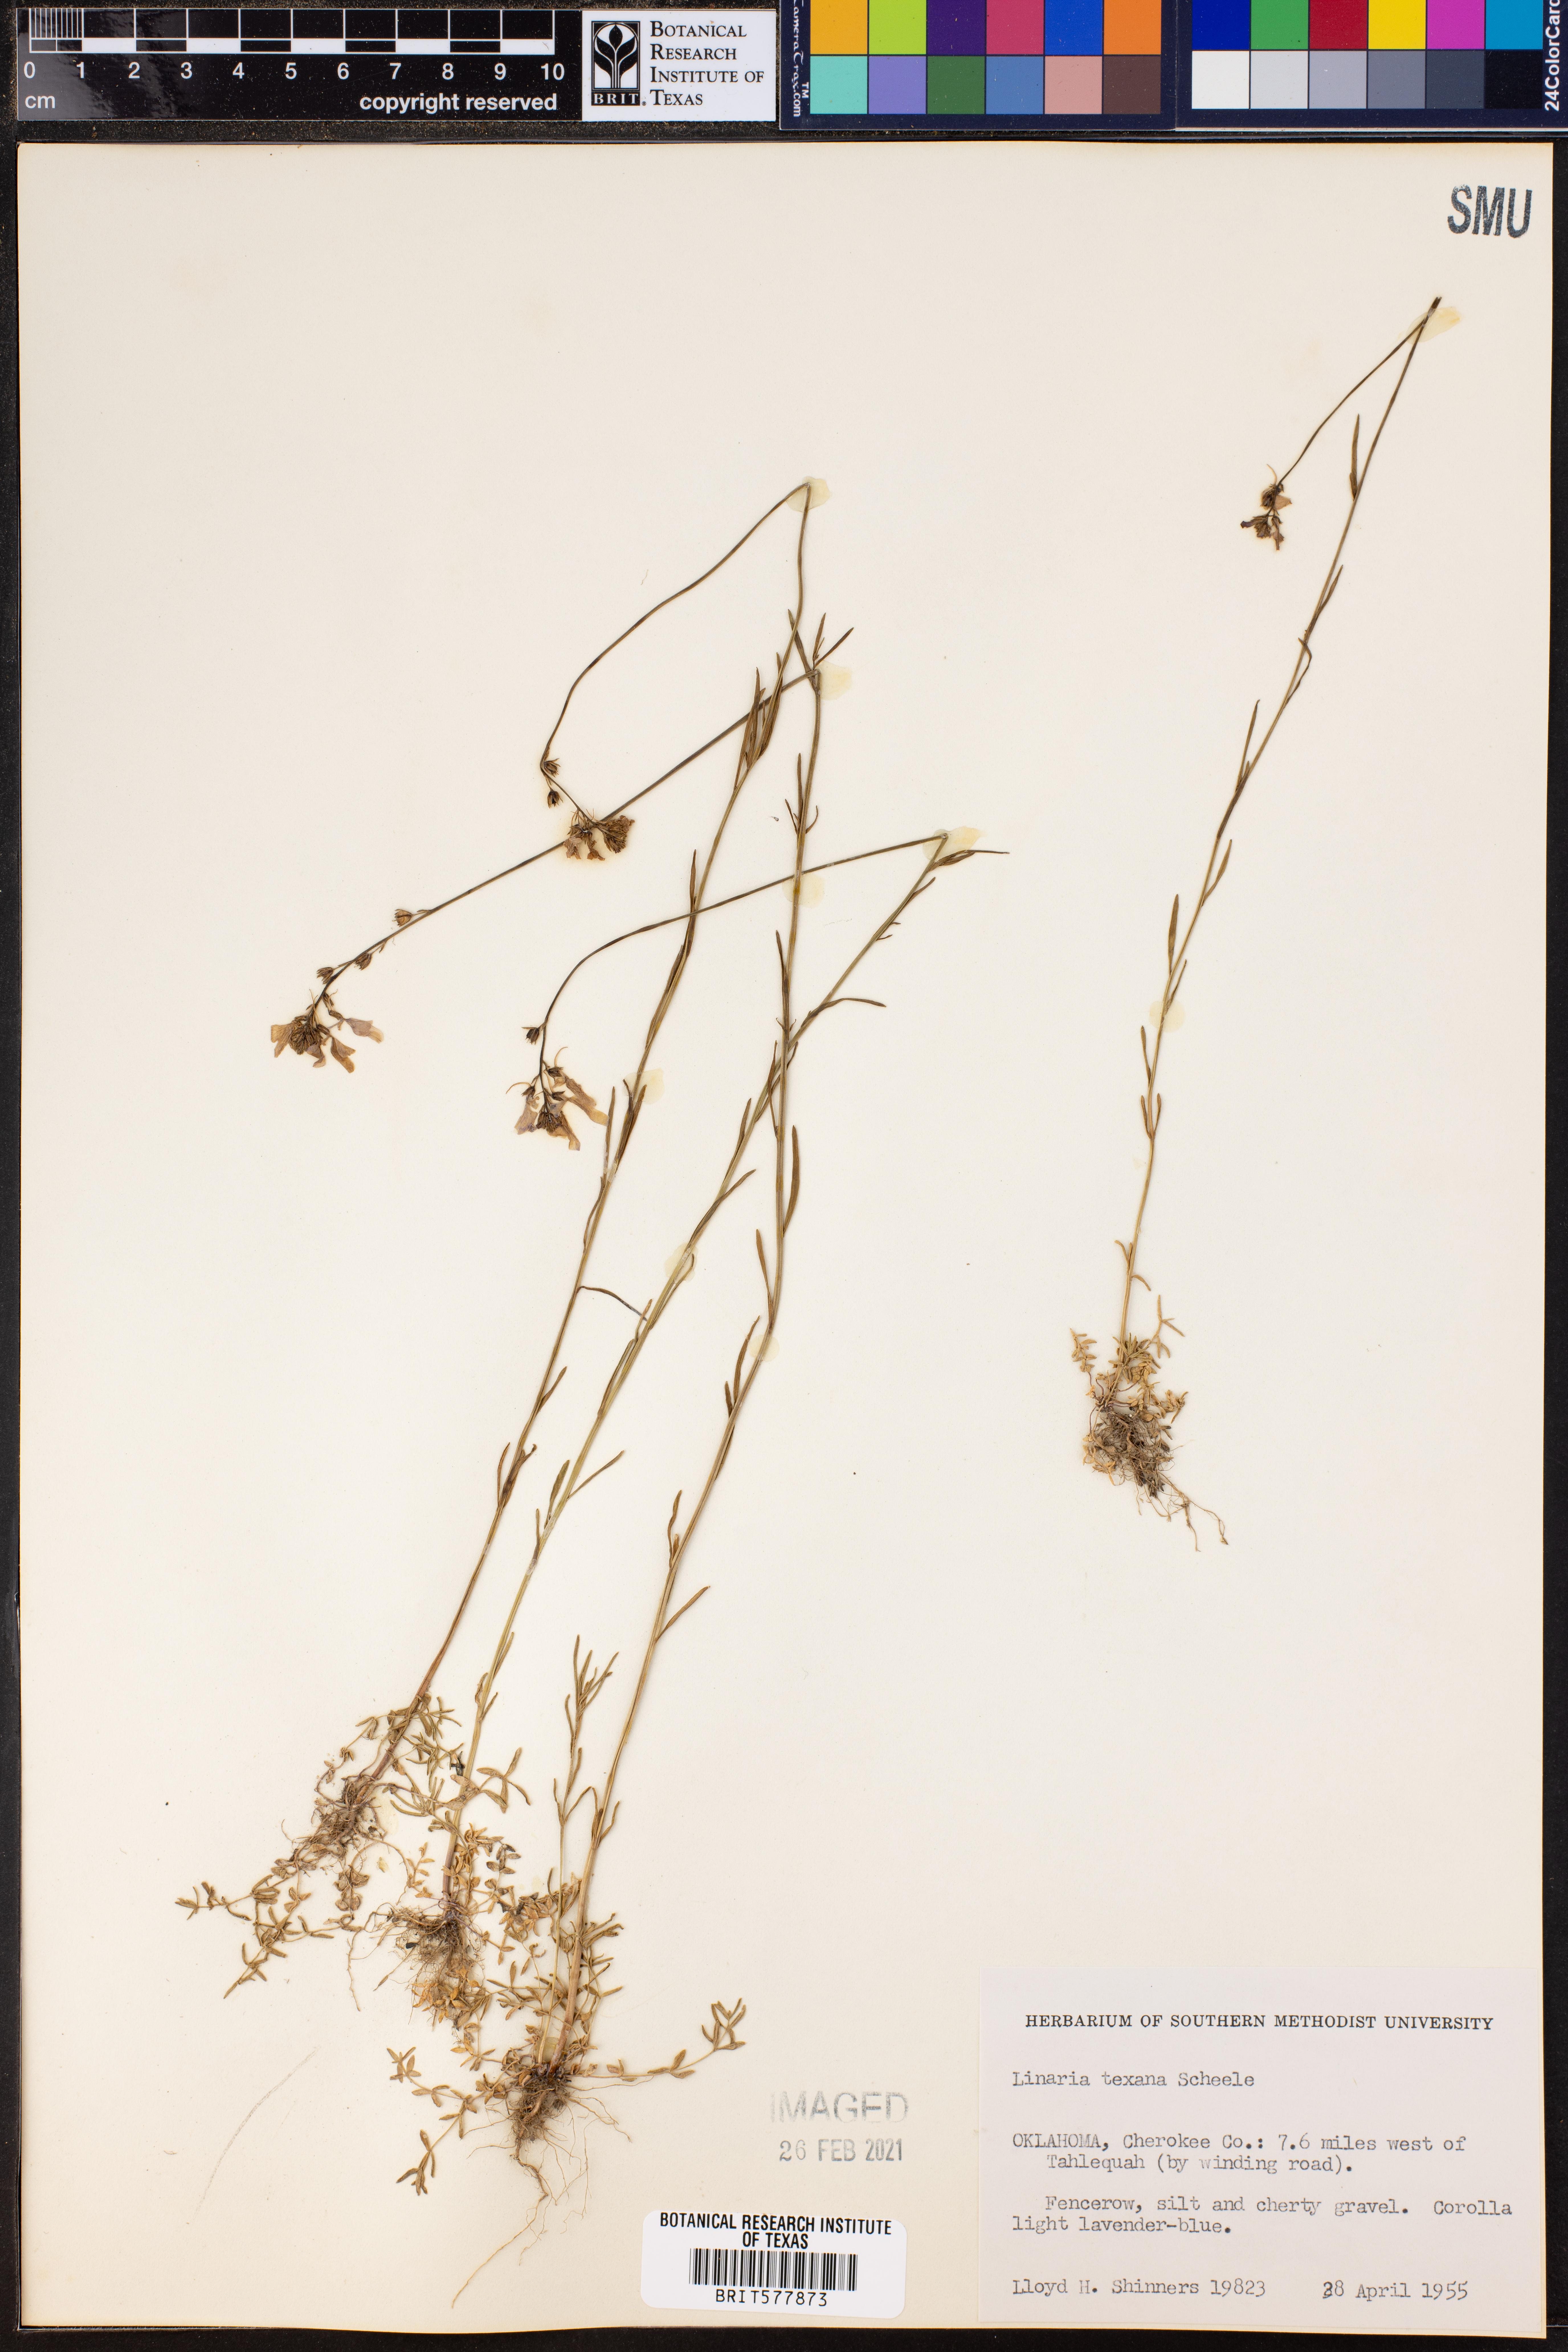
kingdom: Plantae
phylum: Tracheophyta
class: Magnoliopsida
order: Lamiales
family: Plantaginaceae
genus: Nuttallanthus
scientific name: Nuttallanthus texanus
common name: Texas toadflax
